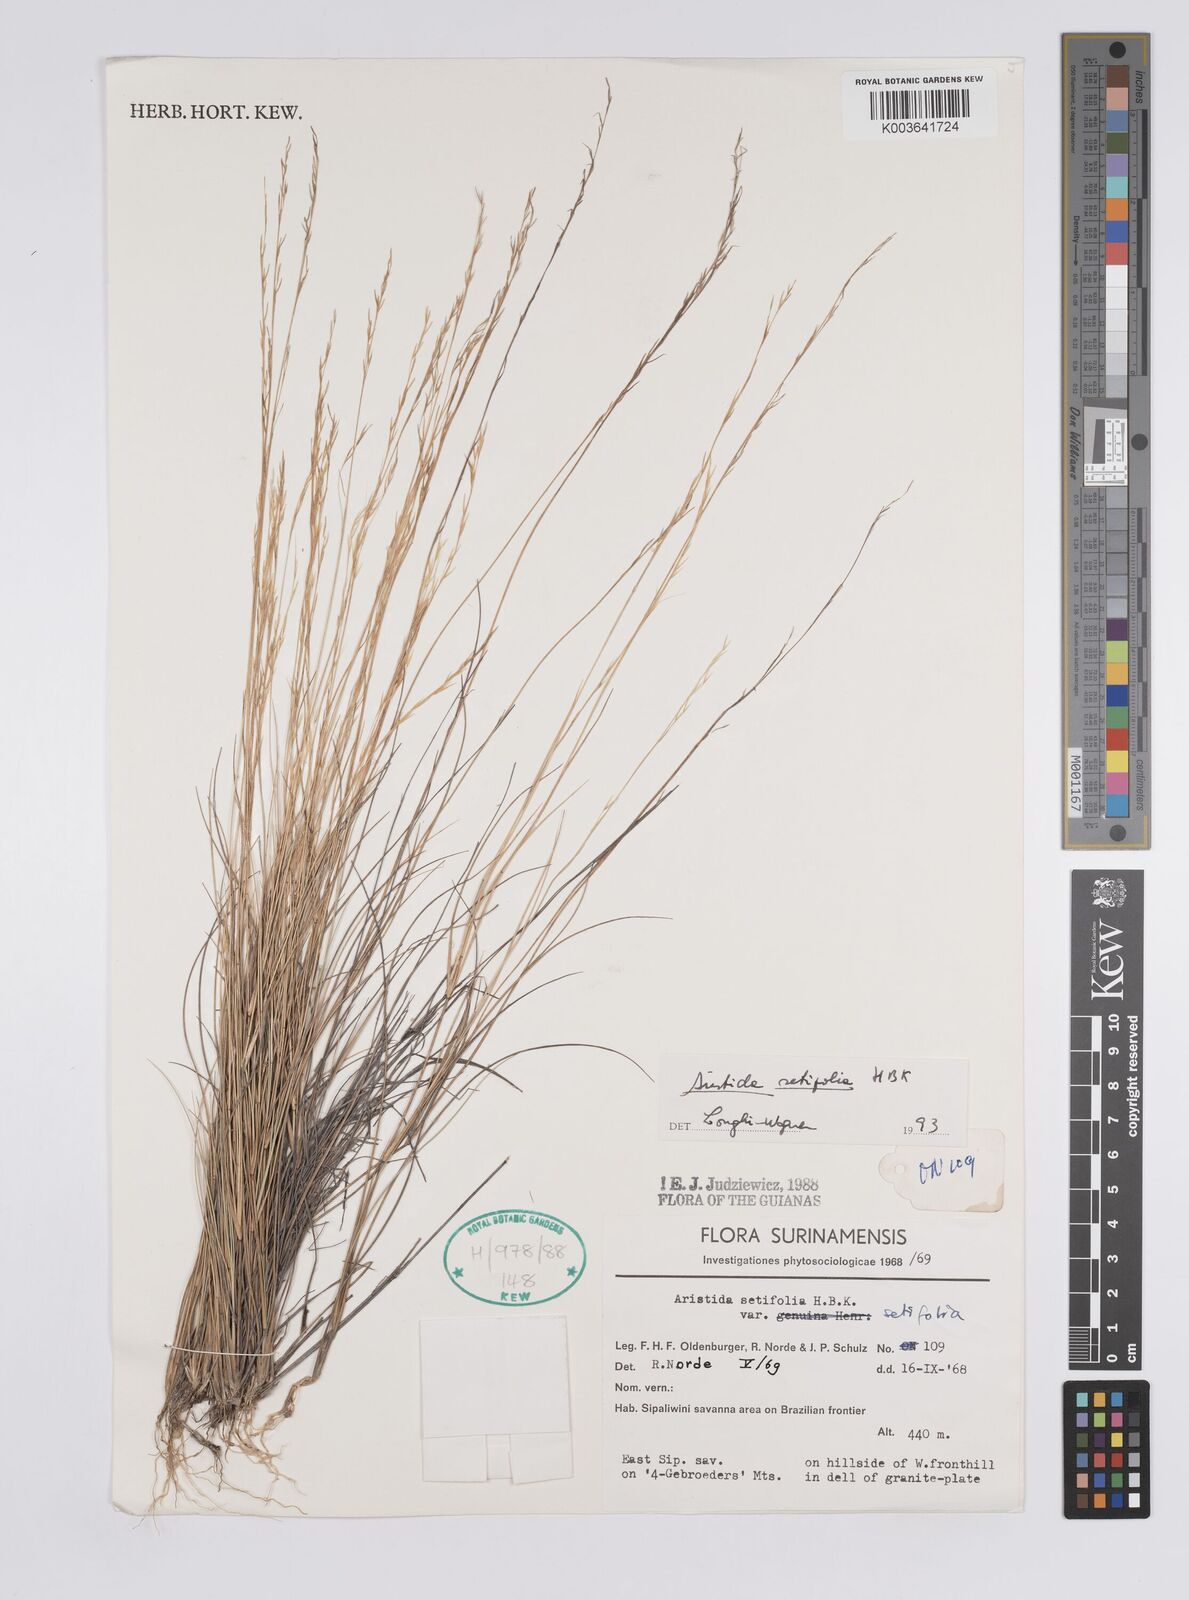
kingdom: Plantae
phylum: Tracheophyta
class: Liliopsida
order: Poales
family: Poaceae
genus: Aristida
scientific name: Aristida setifolia
